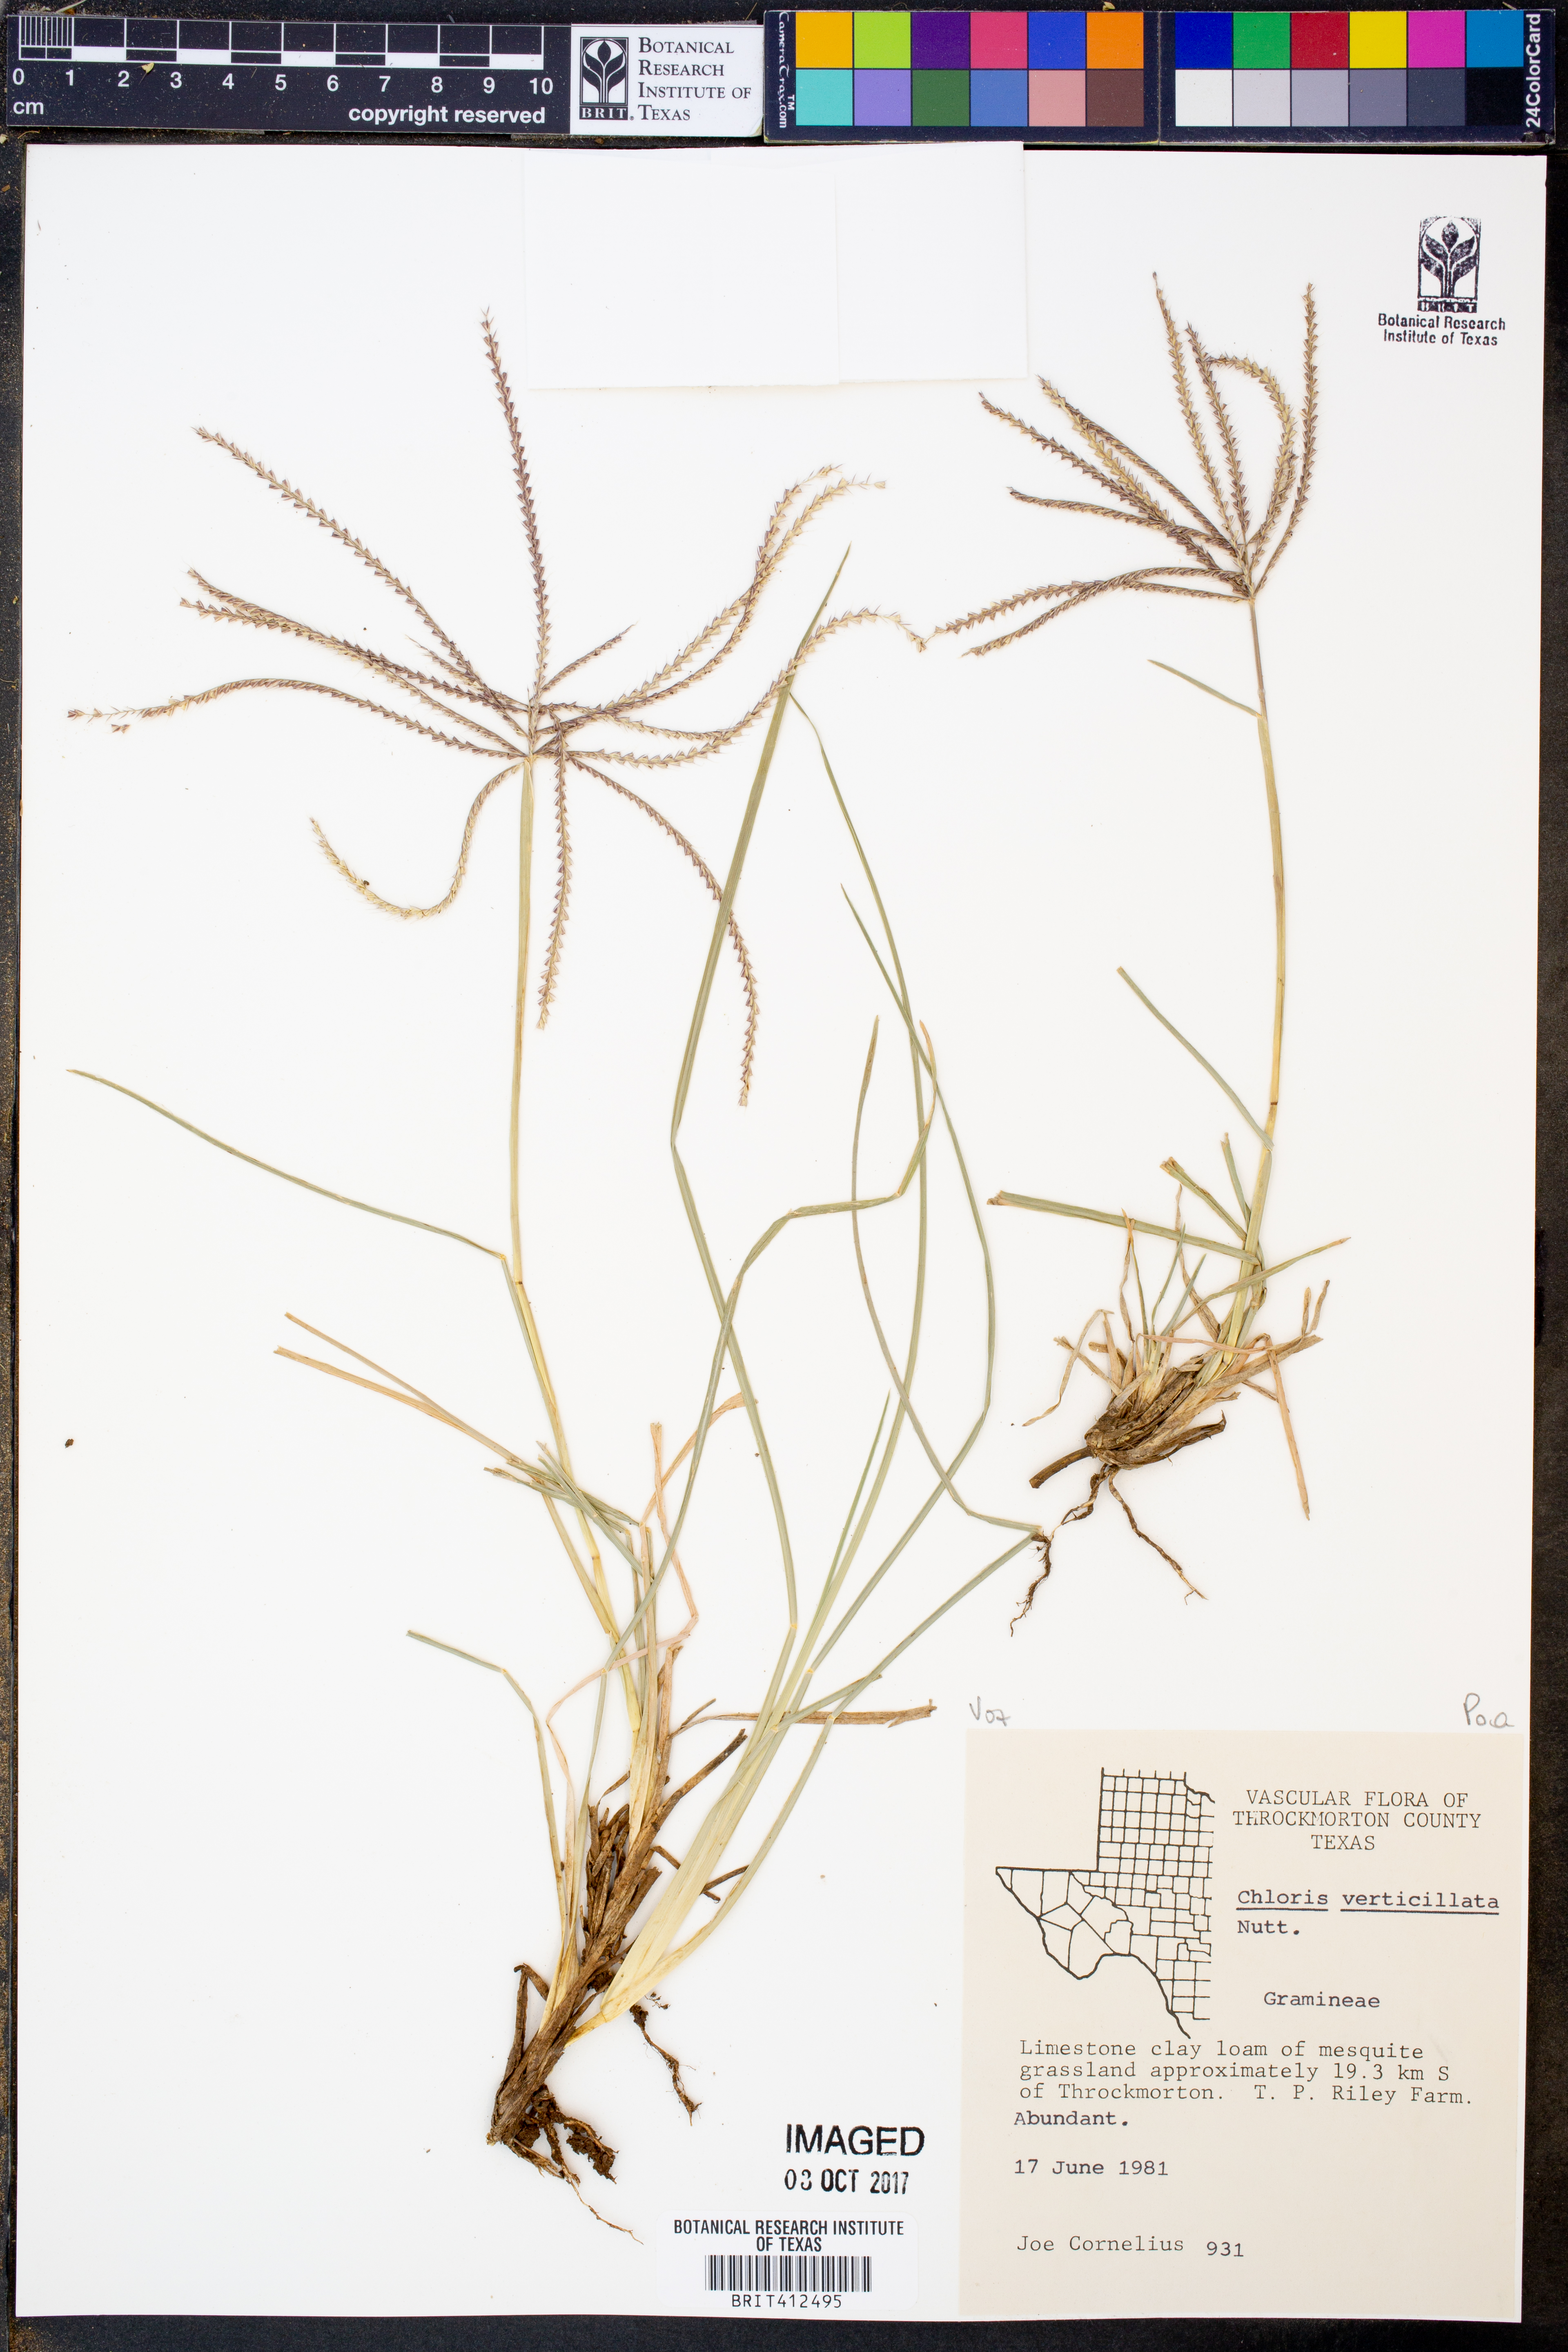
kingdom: Plantae
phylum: Tracheophyta
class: Liliopsida
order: Poales
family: Poaceae
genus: Chloris
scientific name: Chloris verticillata
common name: Tumble windmill grass
